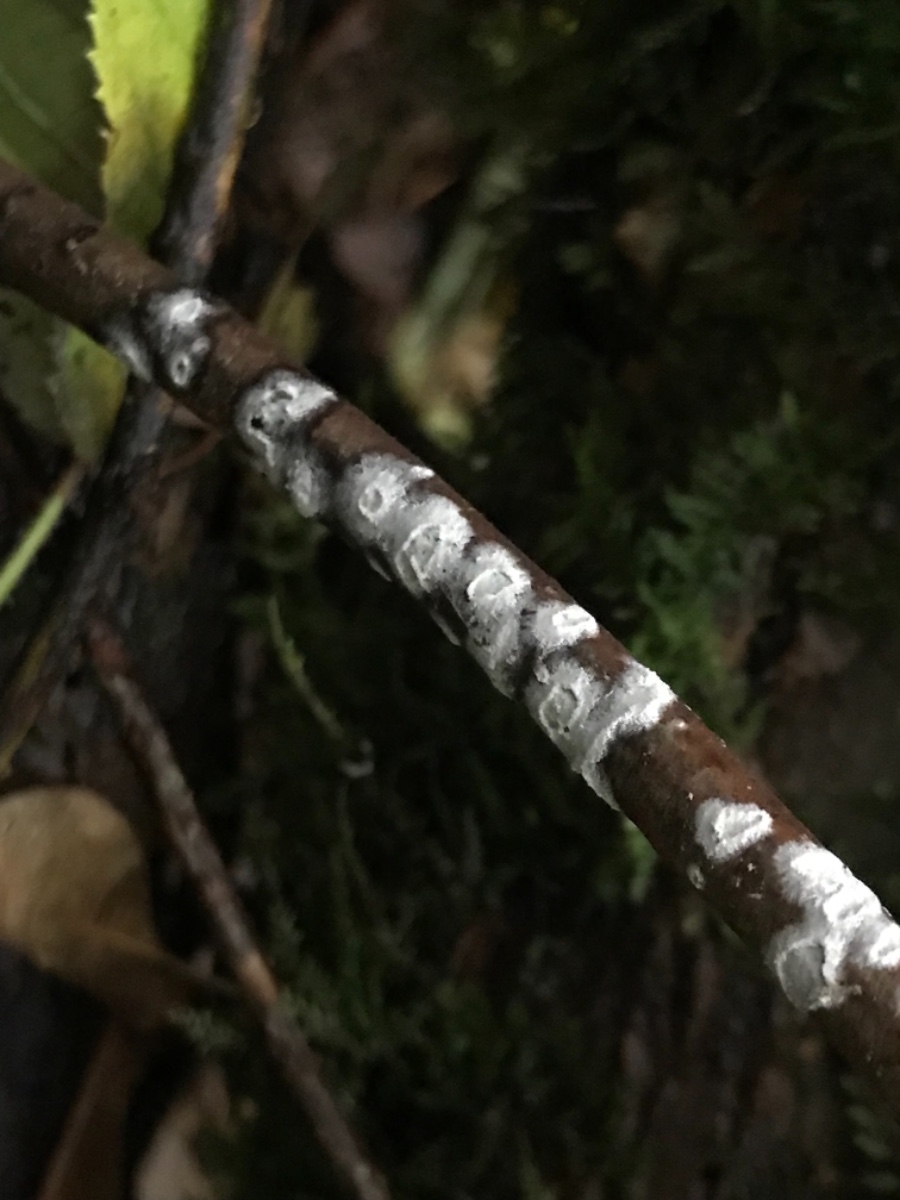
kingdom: Fungi
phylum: Basidiomycota
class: Agaricomycetes
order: Corticiales
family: Corticiaceae
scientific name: Corticiaceae
